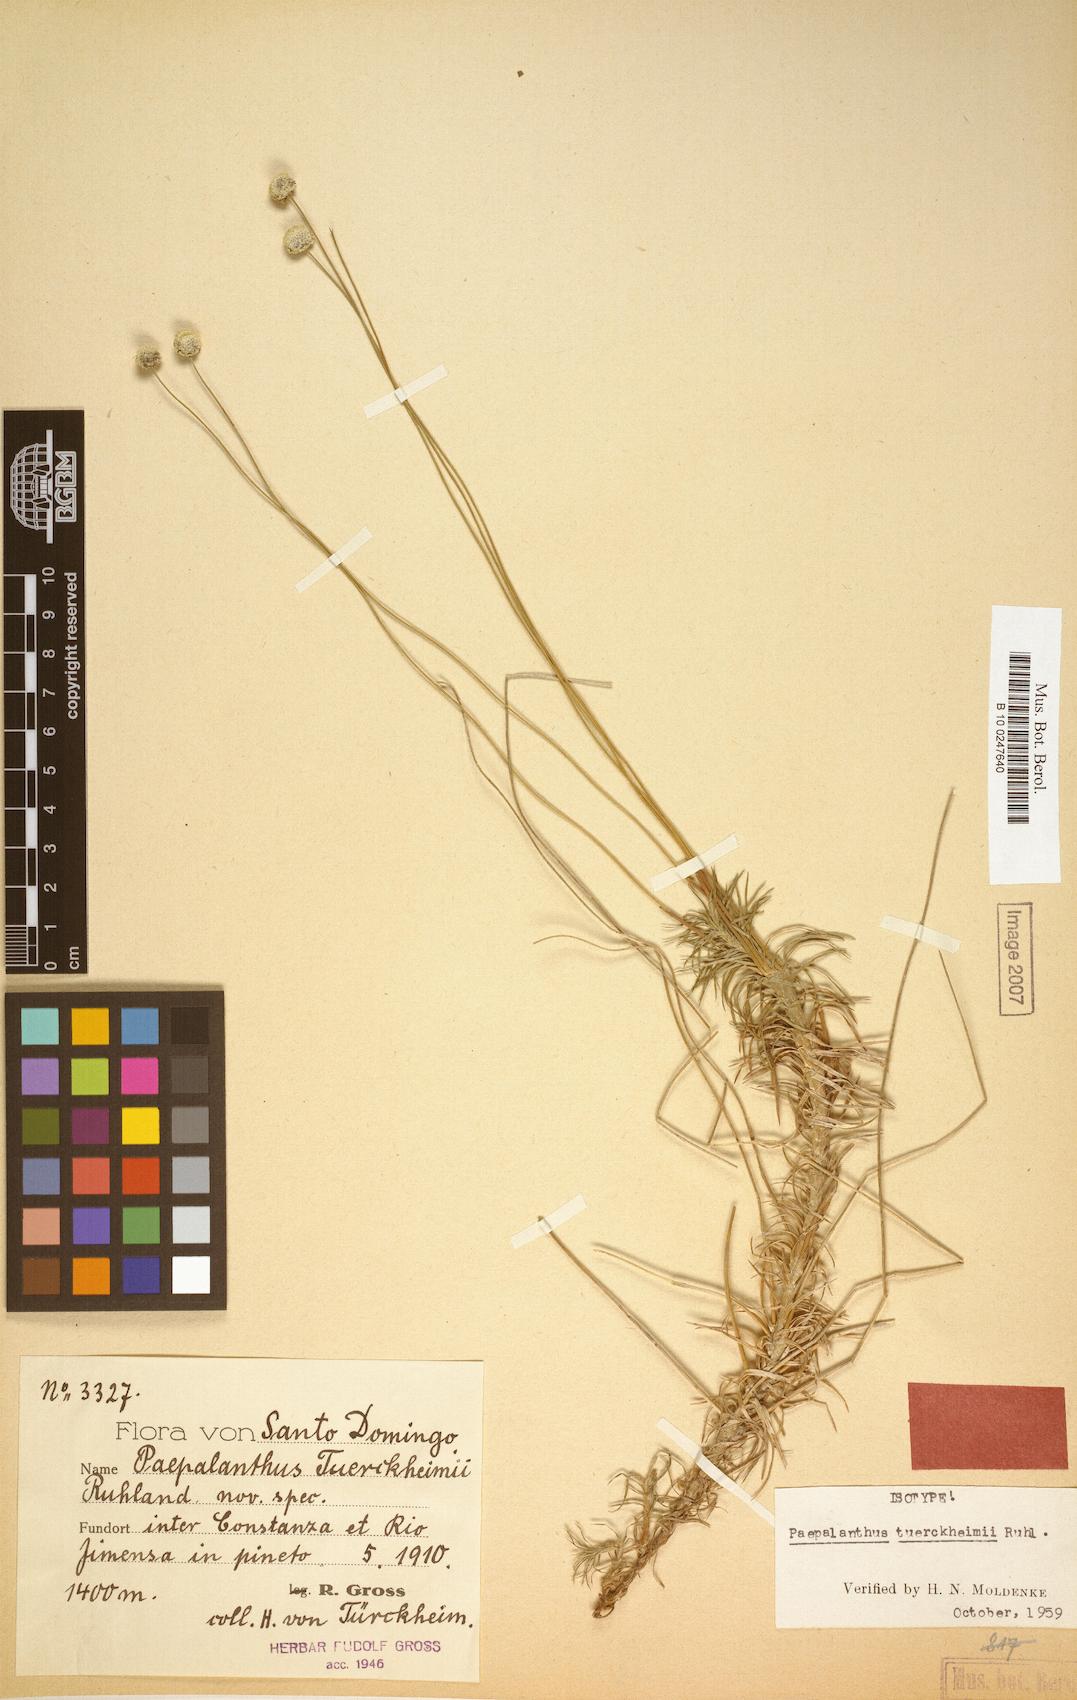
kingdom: Plantae
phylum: Tracheophyta
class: Liliopsida
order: Poales
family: Eriocaulaceae
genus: Paepalanthus
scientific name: Paepalanthus repens
